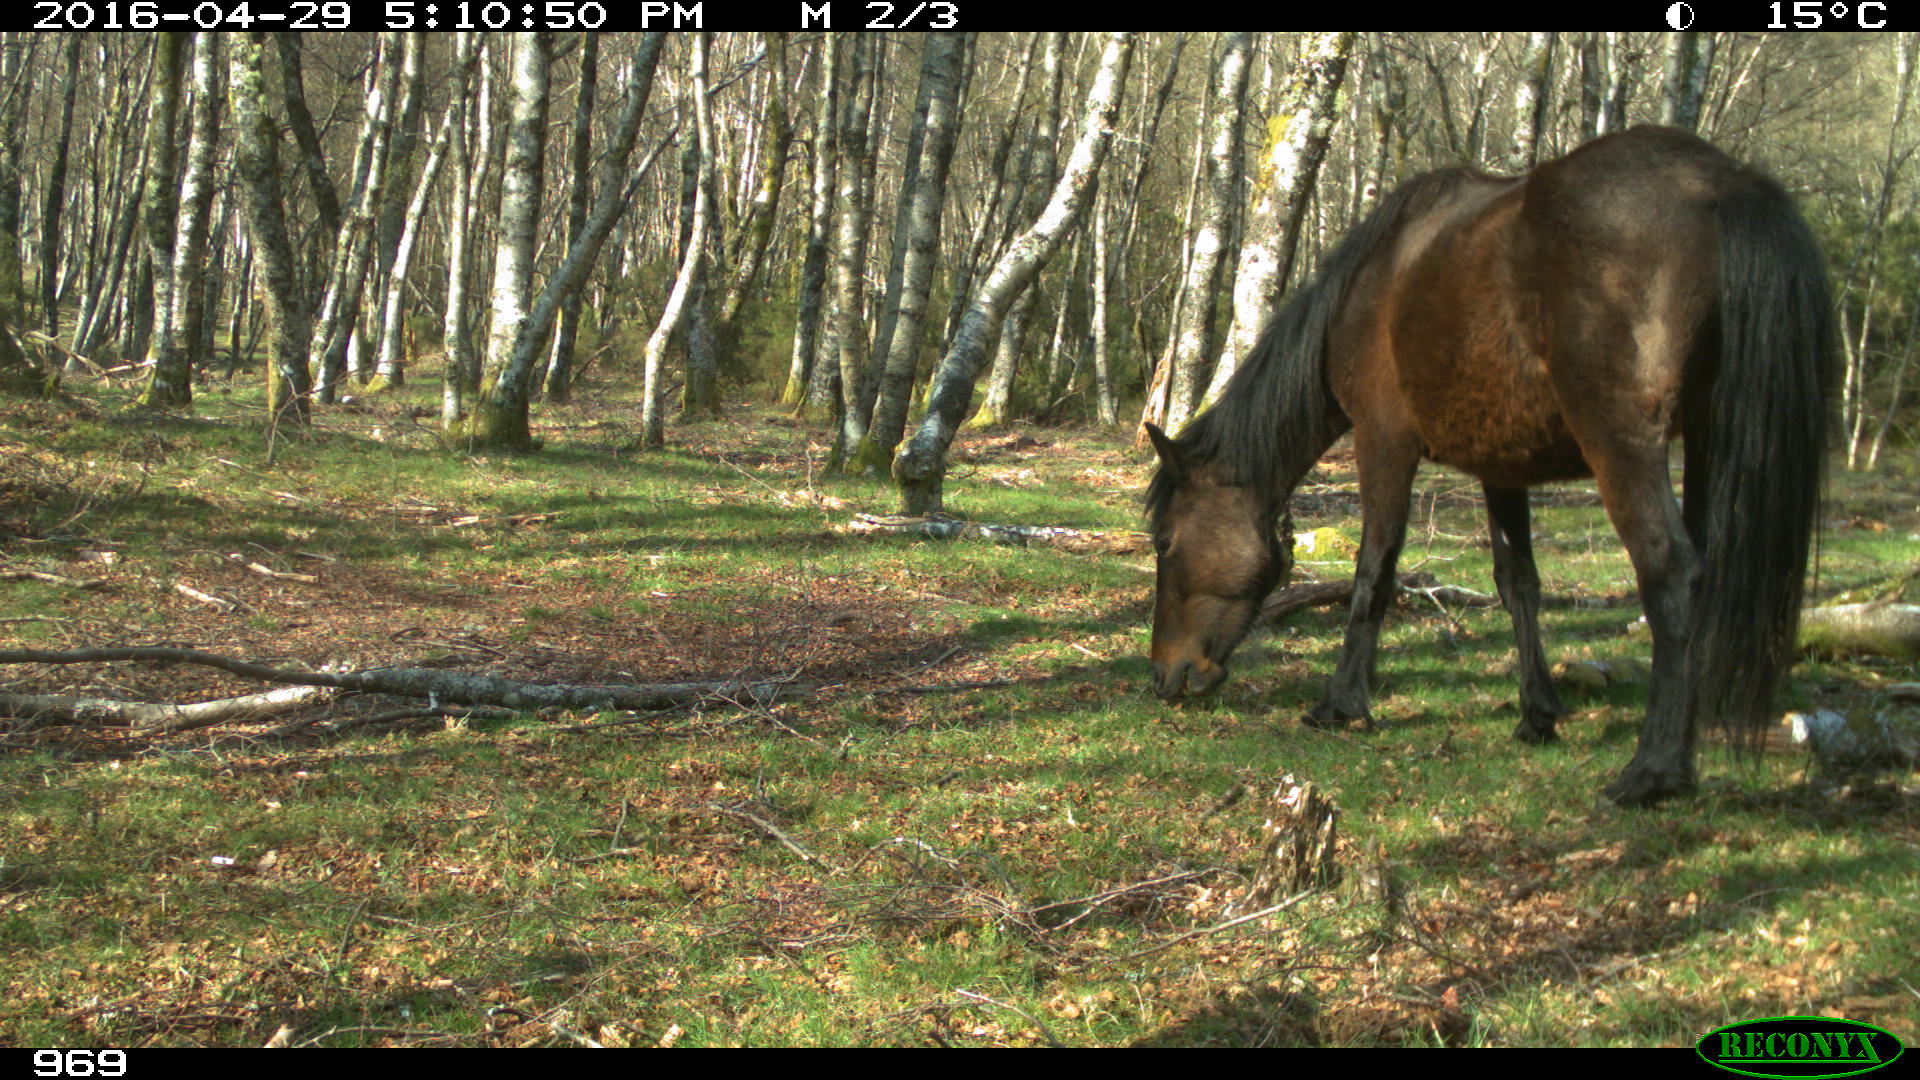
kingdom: Animalia
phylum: Chordata
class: Mammalia
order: Perissodactyla
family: Equidae
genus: Equus
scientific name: Equus caballus
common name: Horse
